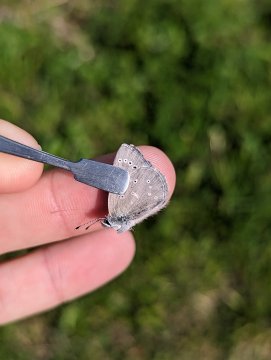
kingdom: Animalia
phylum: Arthropoda
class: Insecta
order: Lepidoptera
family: Lycaenidae
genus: Glaucopsyche
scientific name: Glaucopsyche lygdamus
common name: Silvery Blue
